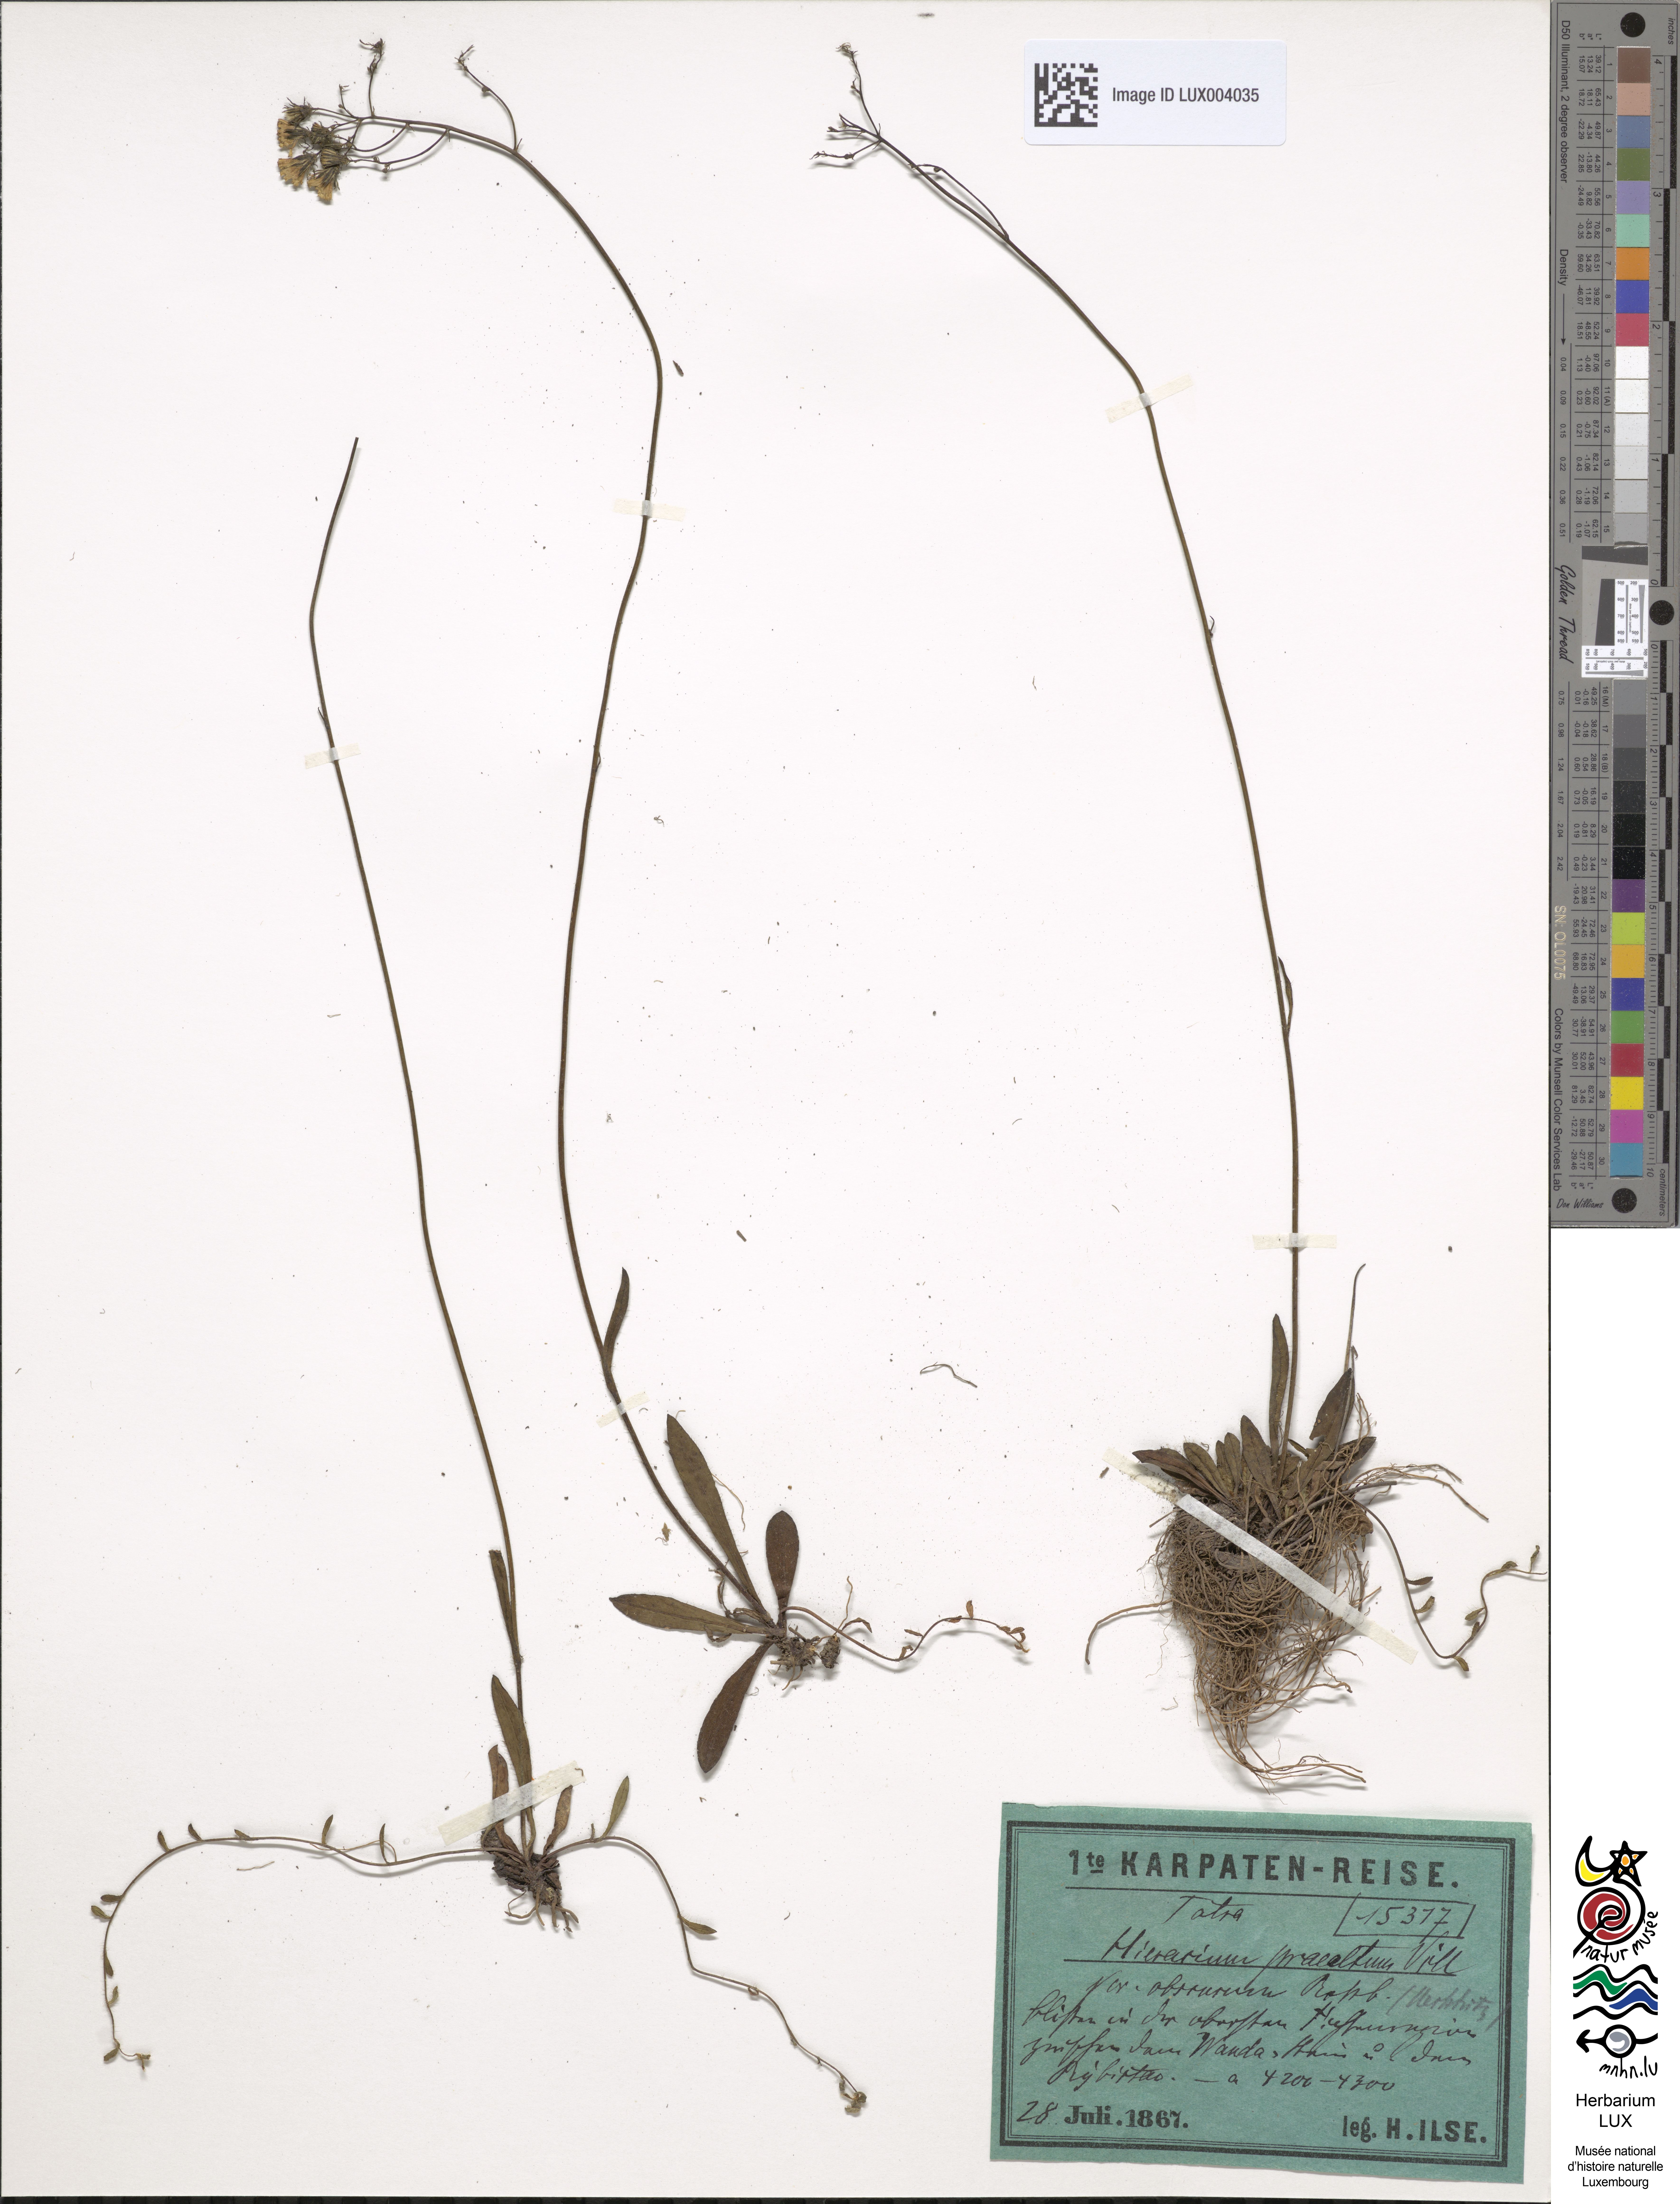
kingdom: Plantae
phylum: Tracheophyta
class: Magnoliopsida
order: Asterales
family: Asteraceae
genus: Pilosella
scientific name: Pilosella piloselloides
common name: Glaucous king-devil
